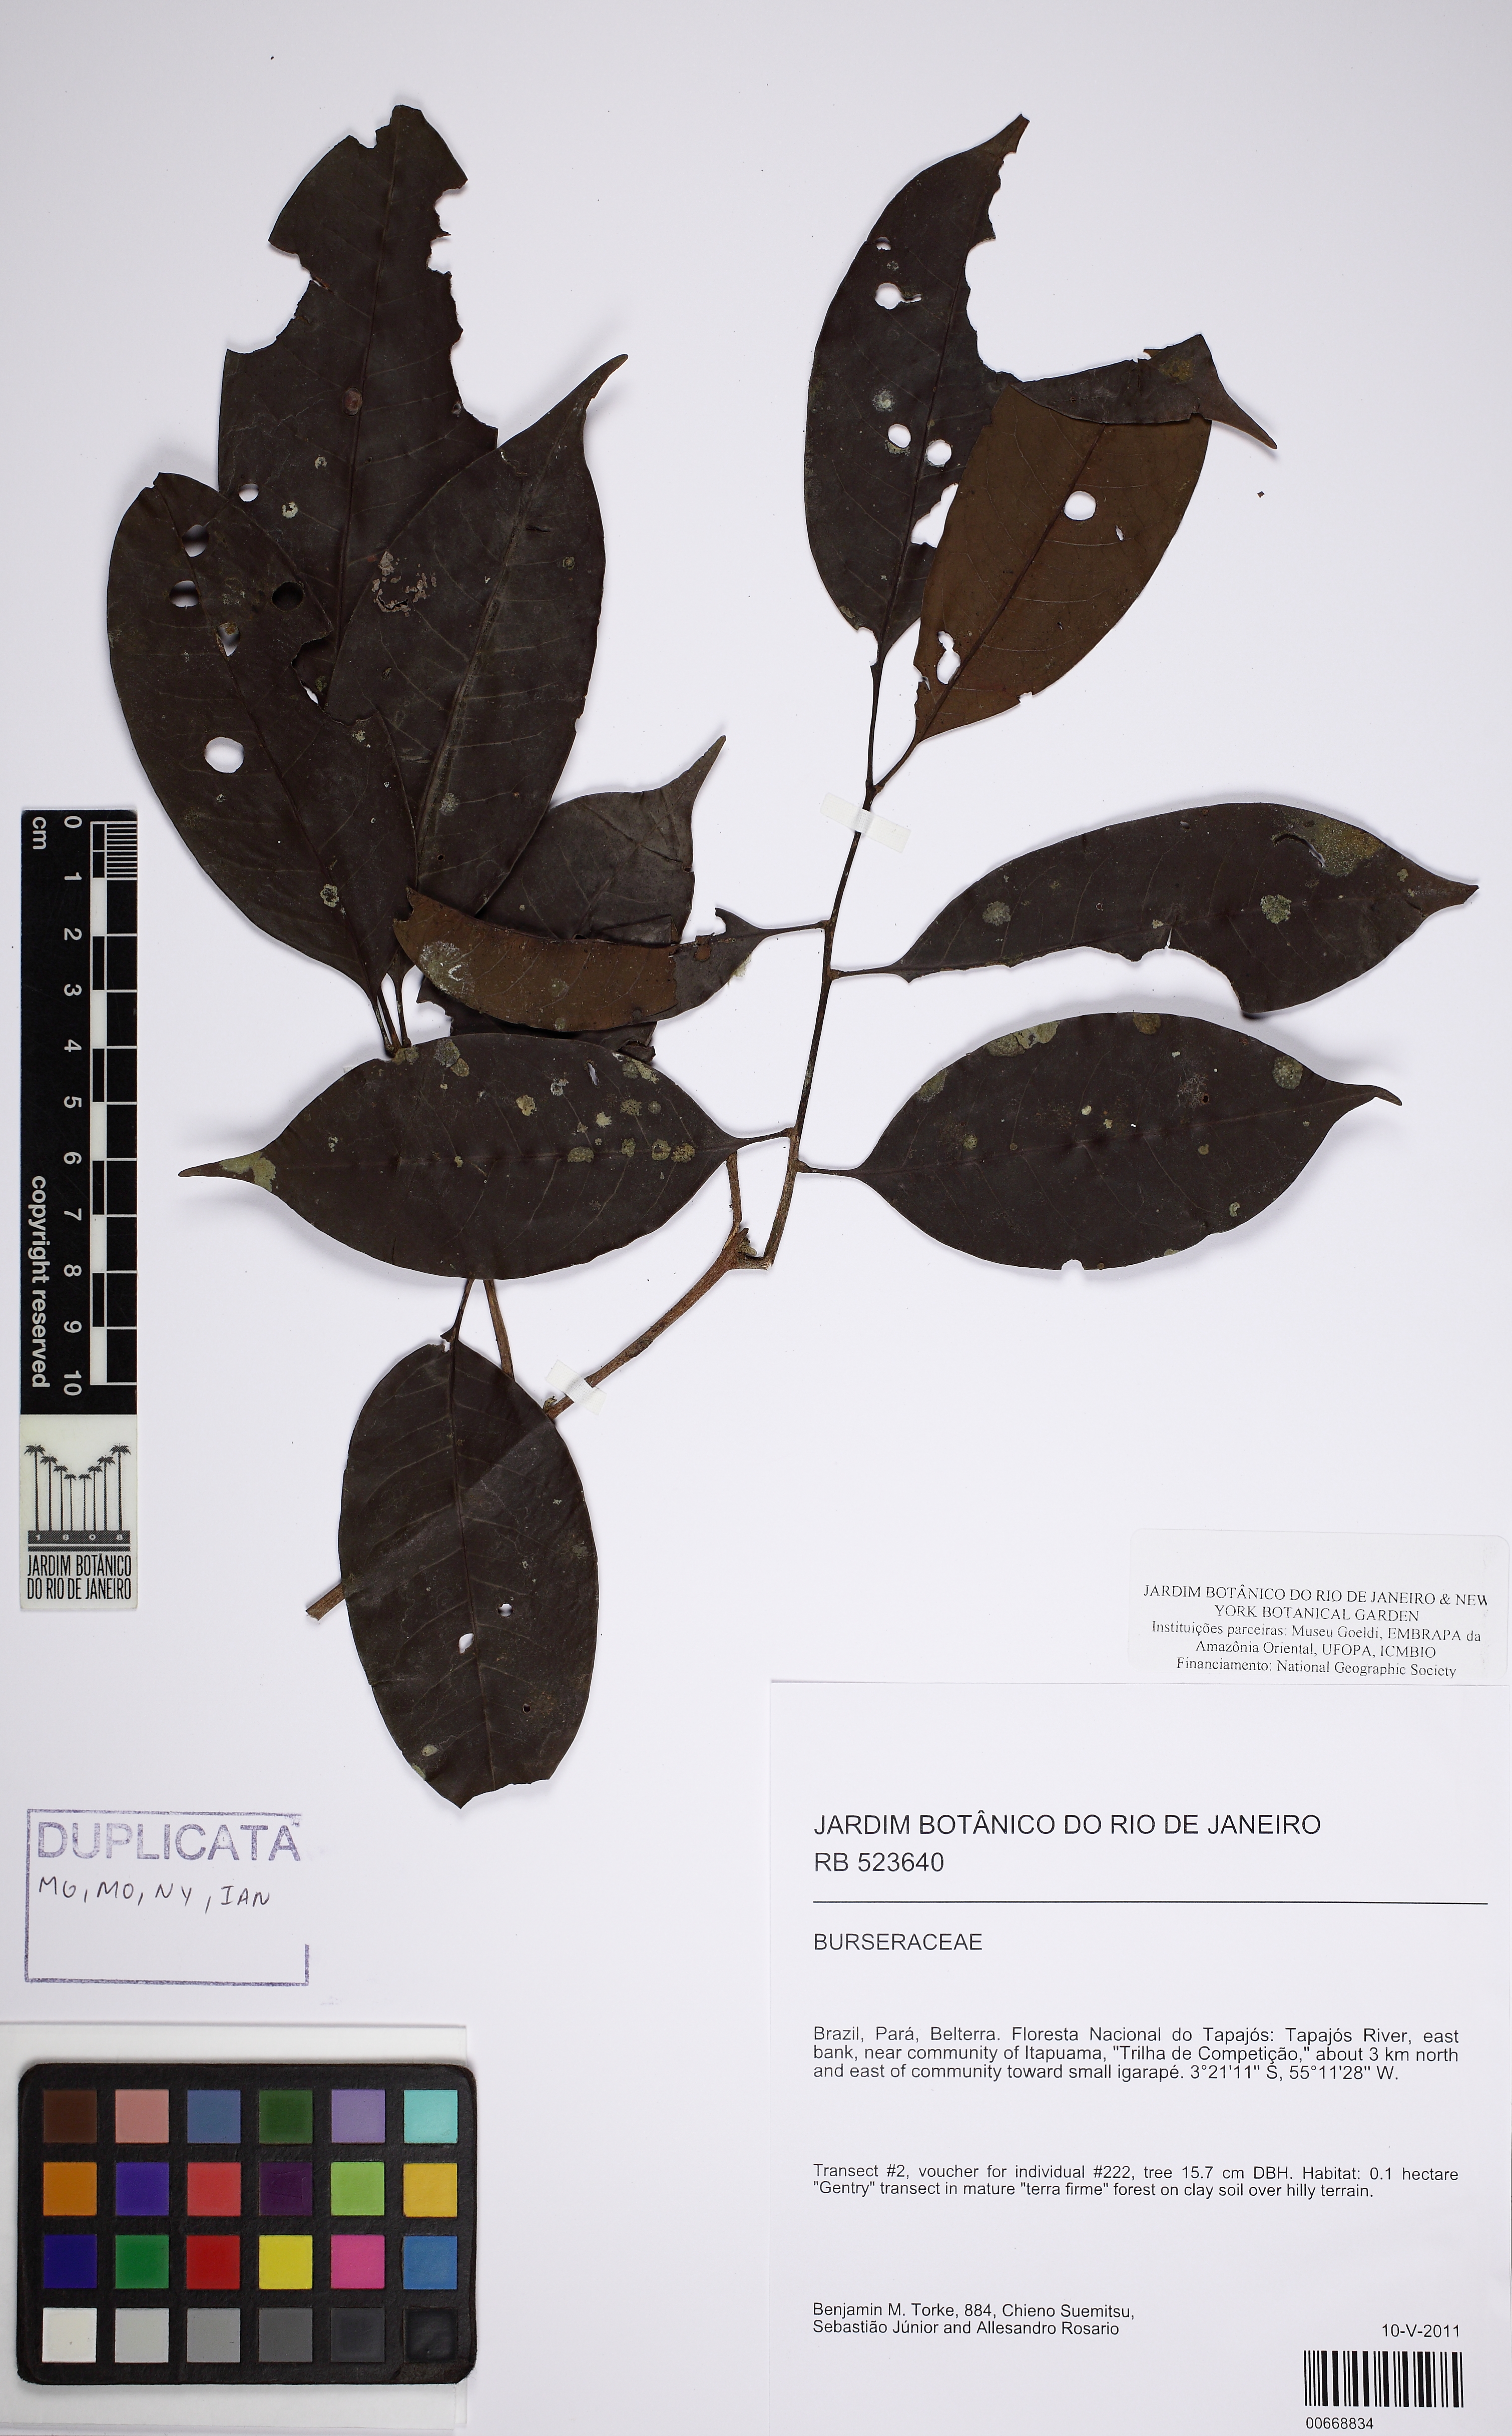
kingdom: Plantae
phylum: Tracheophyta
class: Magnoliopsida
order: Sapindales
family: Meliaceae
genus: Trichilia
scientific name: Trichilia
